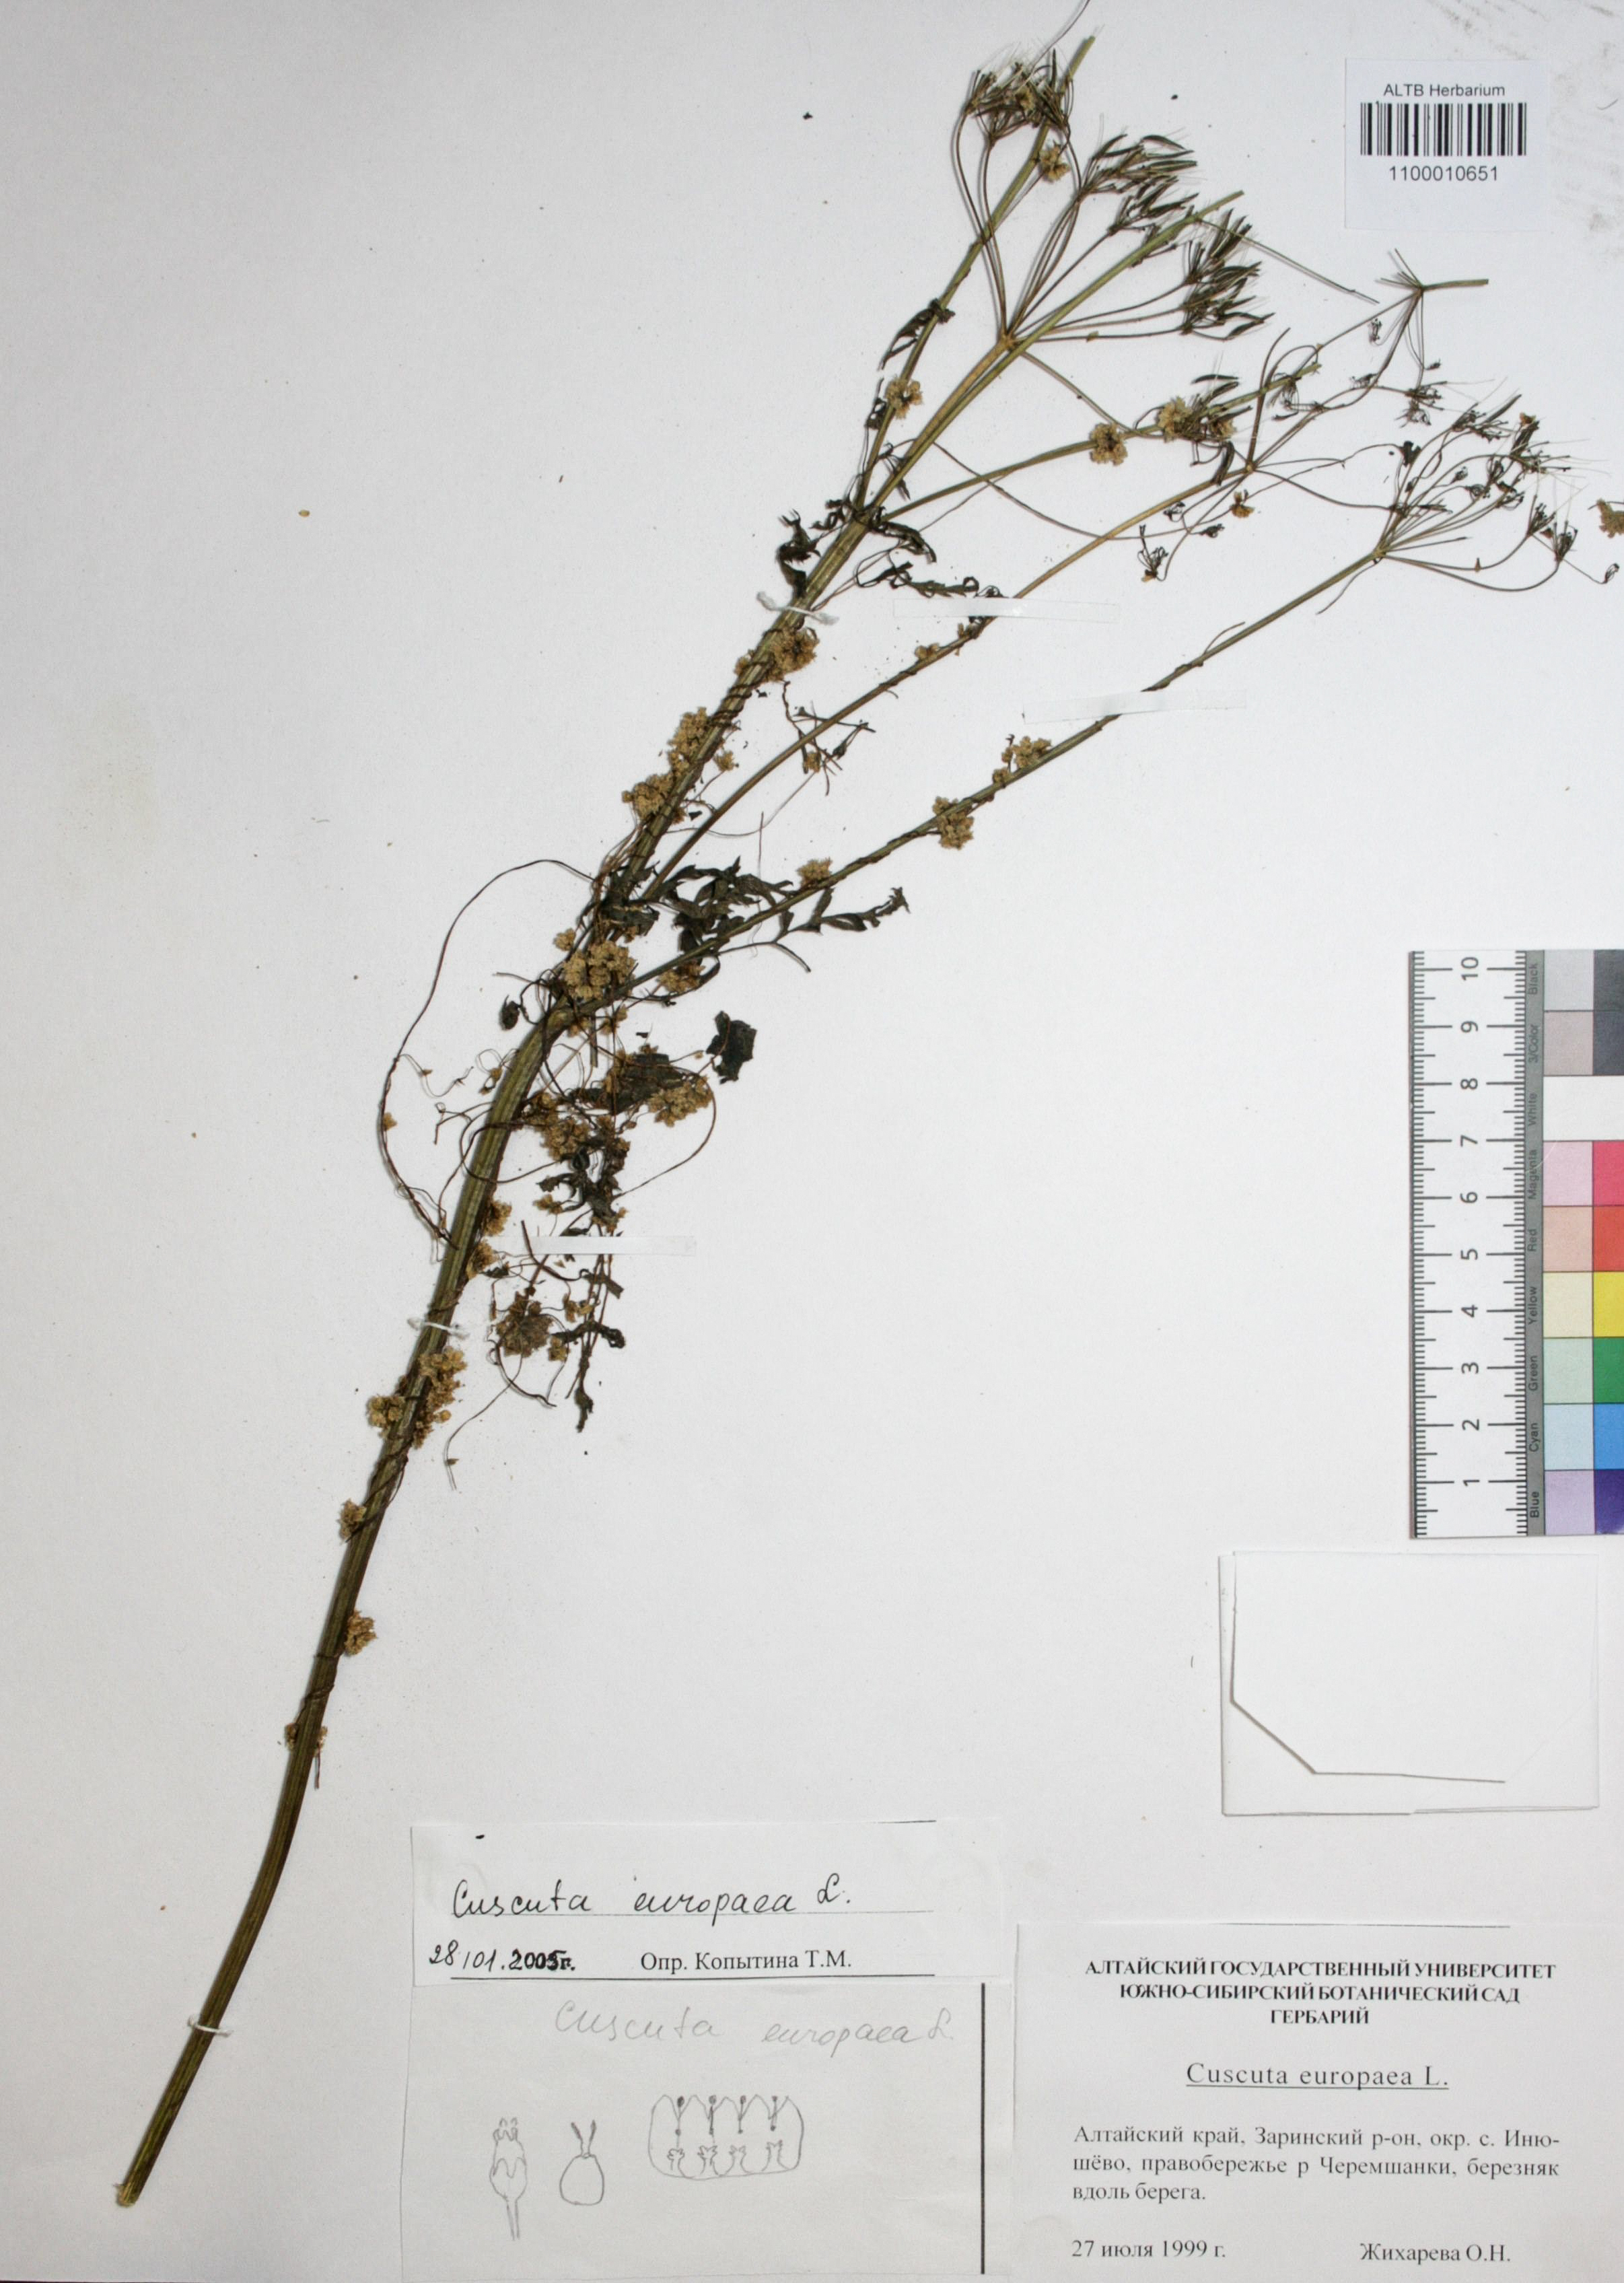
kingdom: Plantae
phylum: Tracheophyta
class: Magnoliopsida
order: Solanales
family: Convolvulaceae
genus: Cuscuta
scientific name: Cuscuta europaea
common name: Greater dodder
